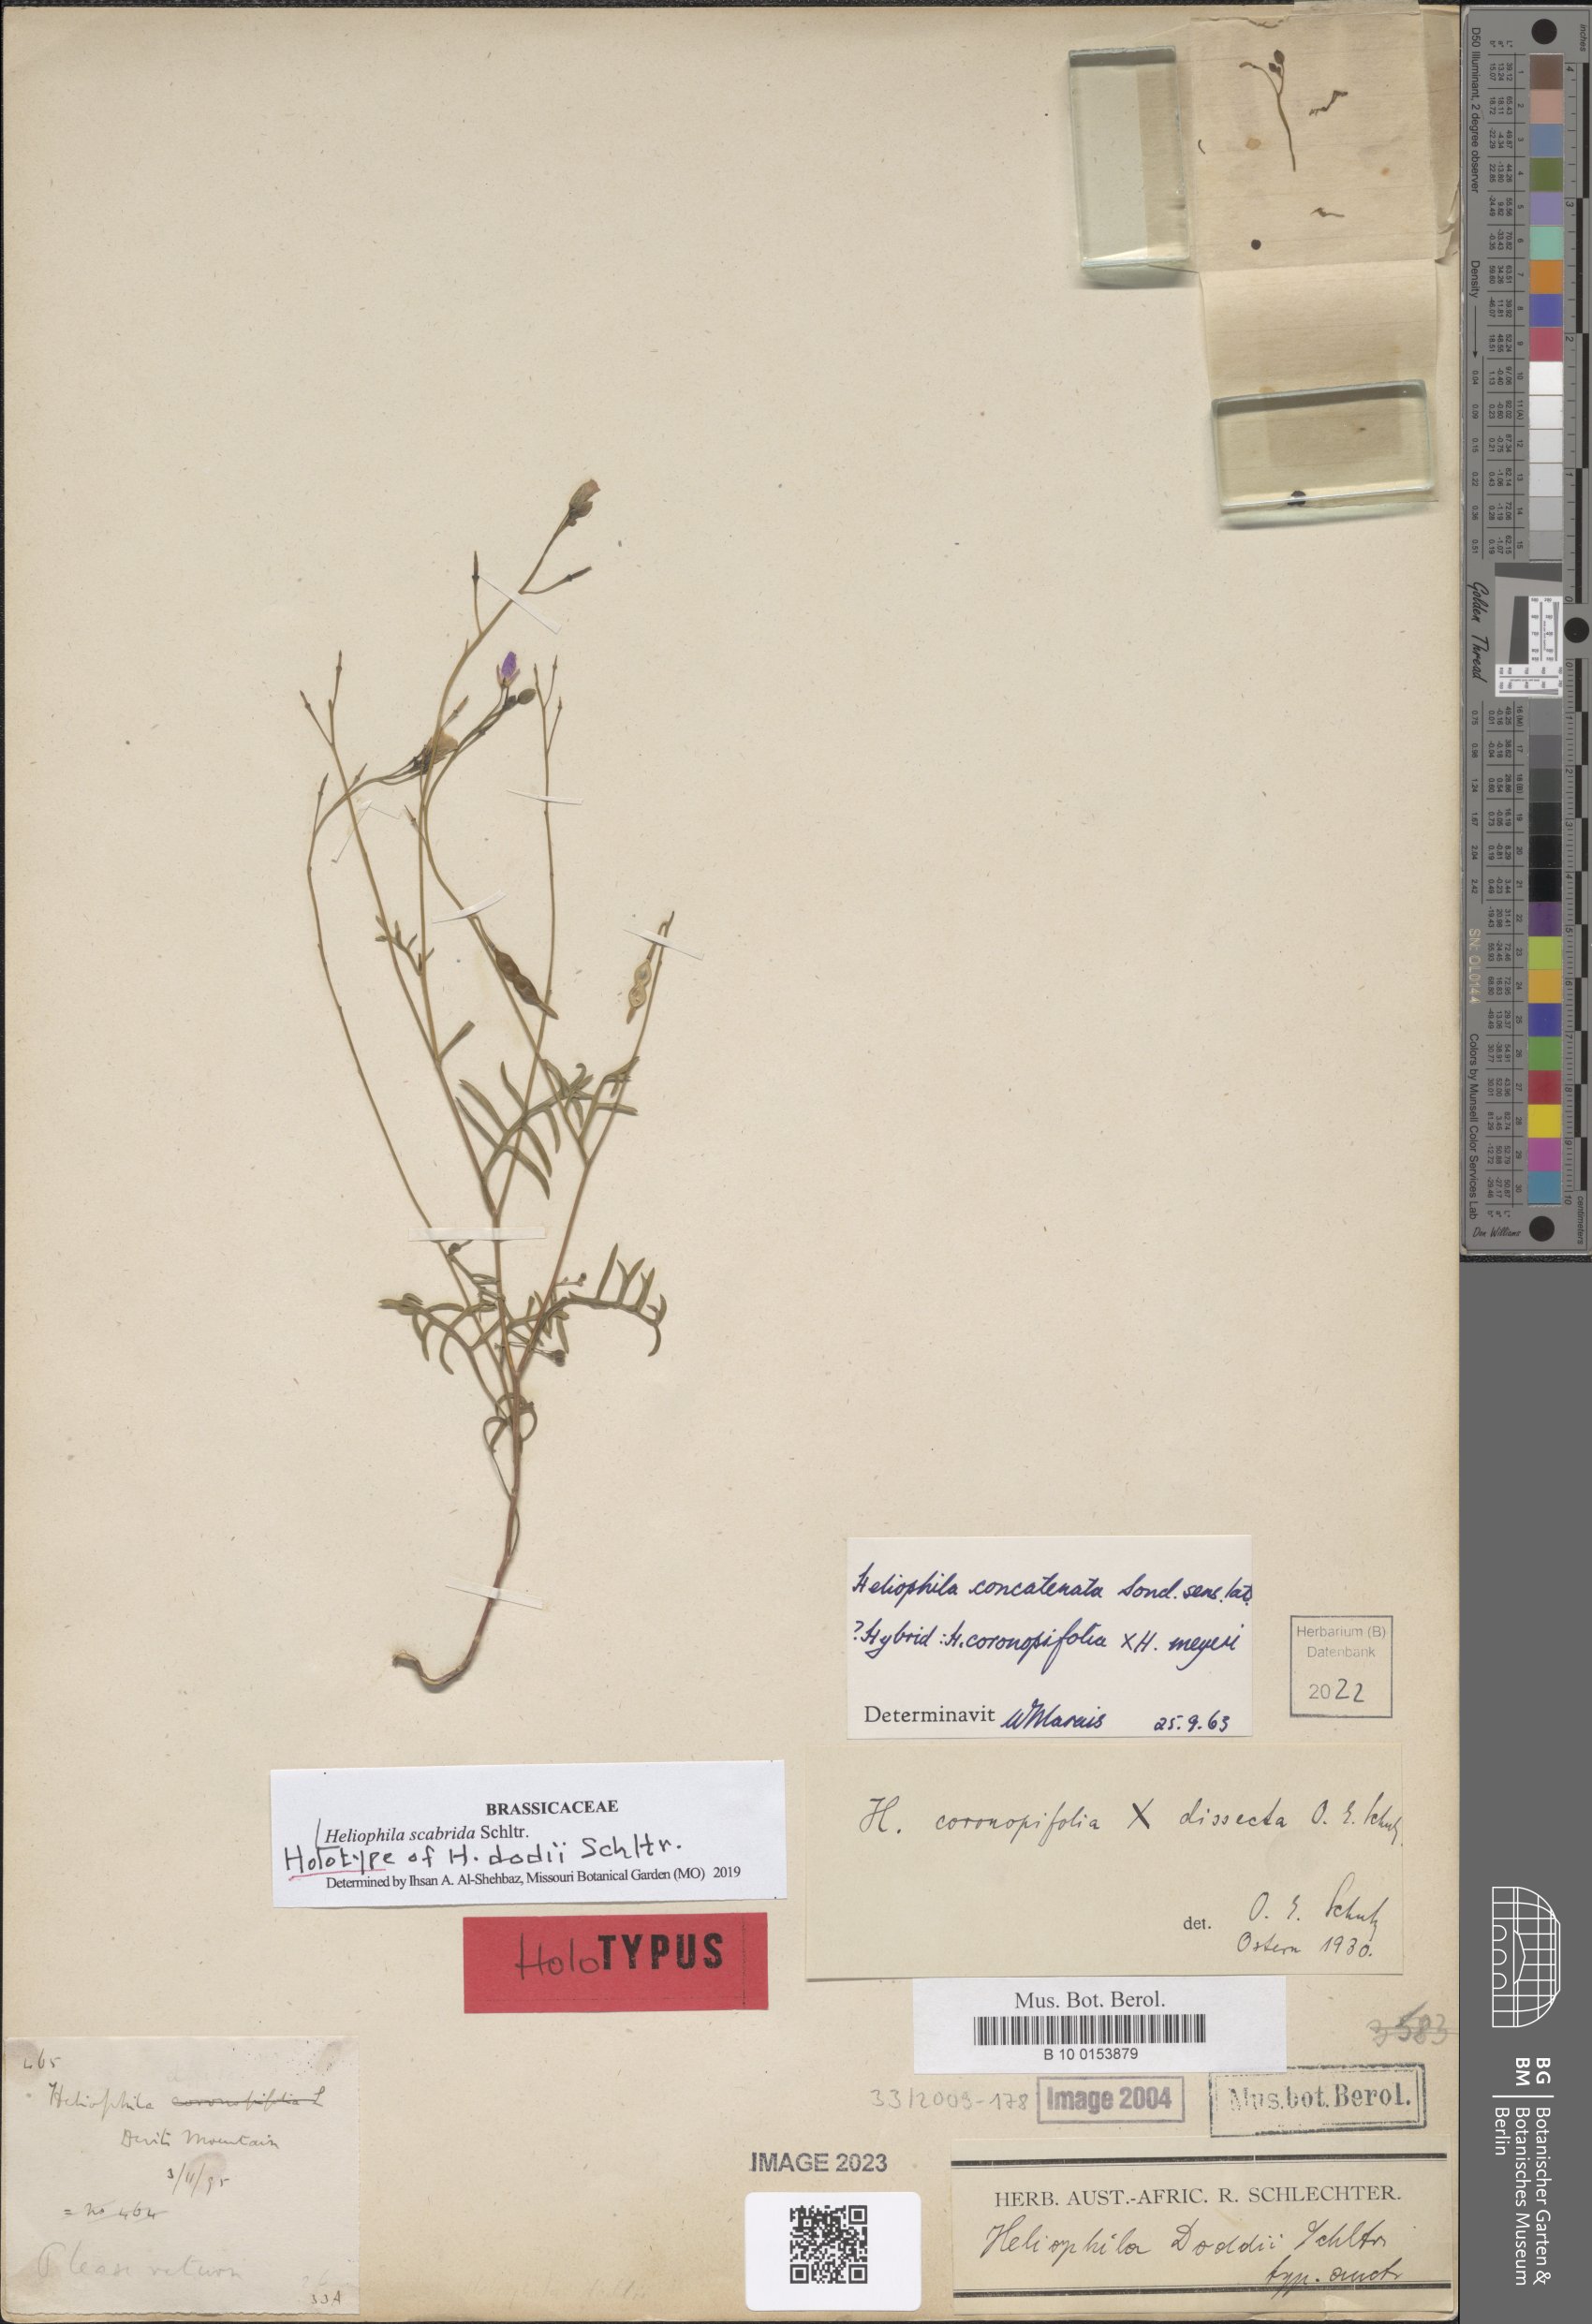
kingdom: Plantae
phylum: Tracheophyta
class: Magnoliopsida
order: Brassicales
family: Brassicaceae
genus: Heliophila
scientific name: Heliophila concatenata
